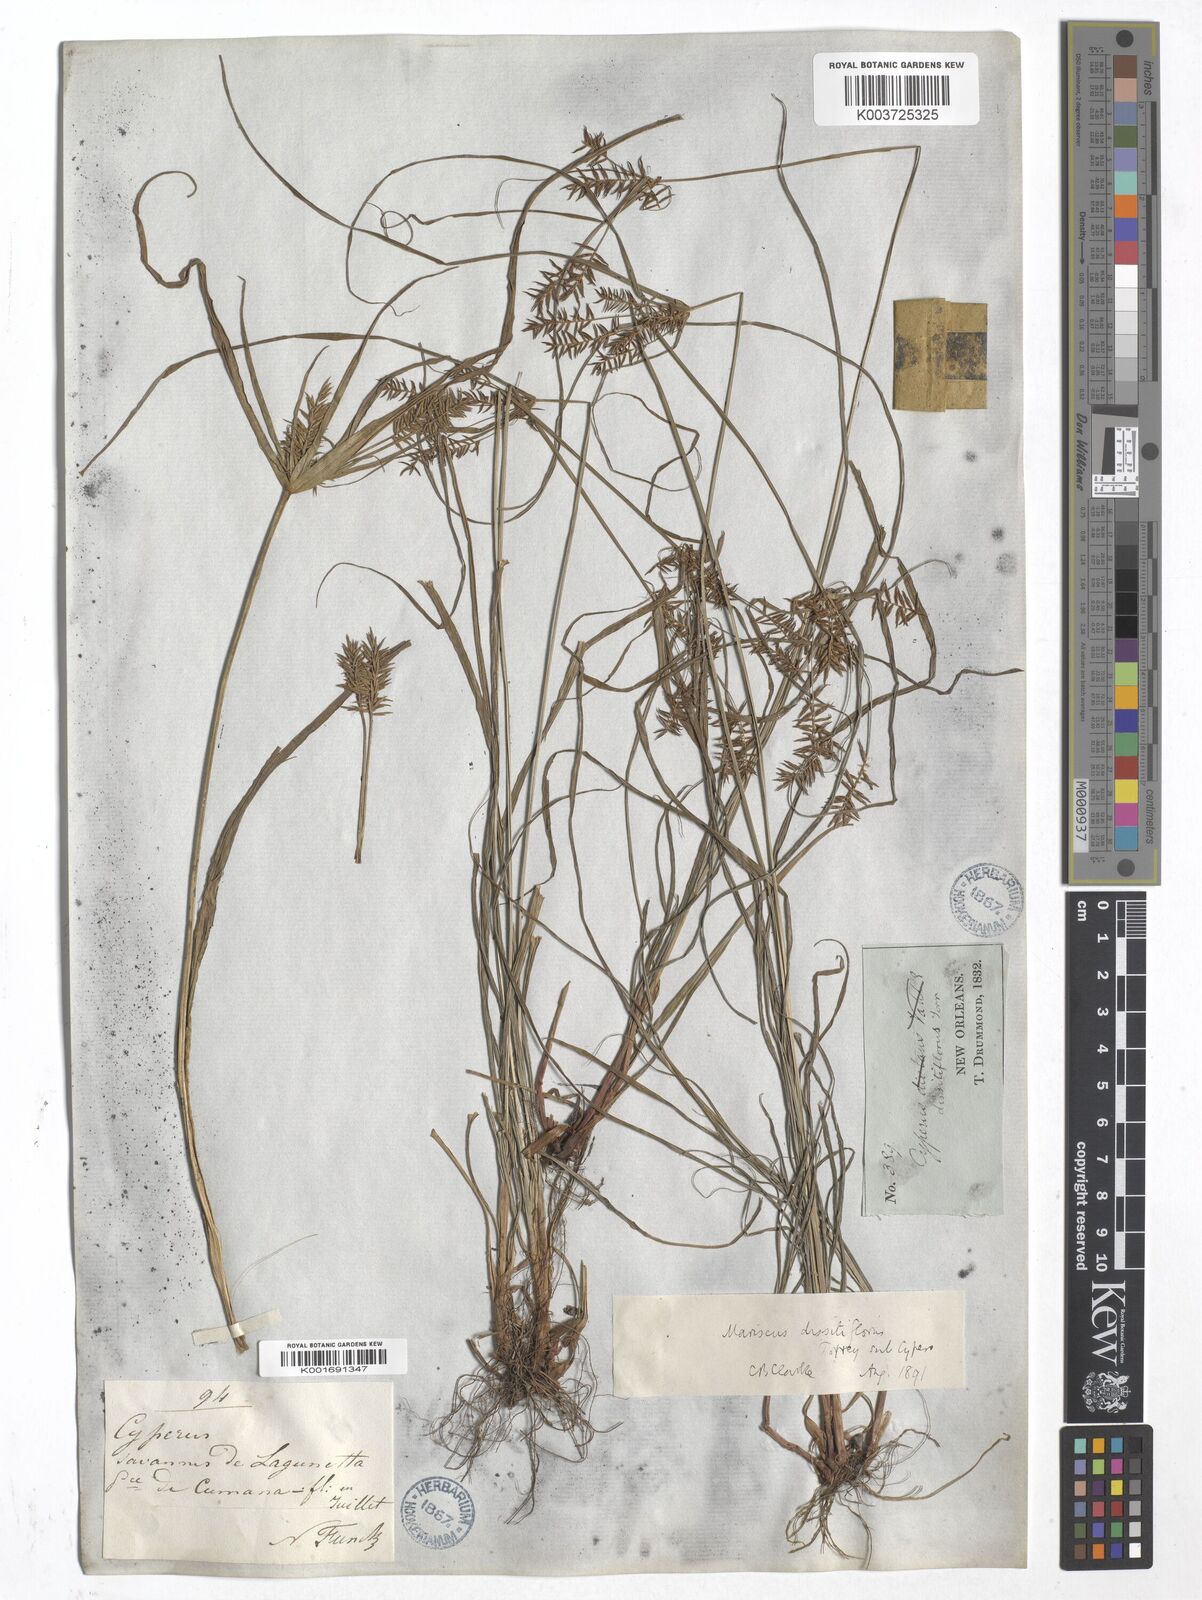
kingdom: Plantae
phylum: Tracheophyta
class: Liliopsida
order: Poales
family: Cyperaceae
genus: Cyperus
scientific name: Cyperus
